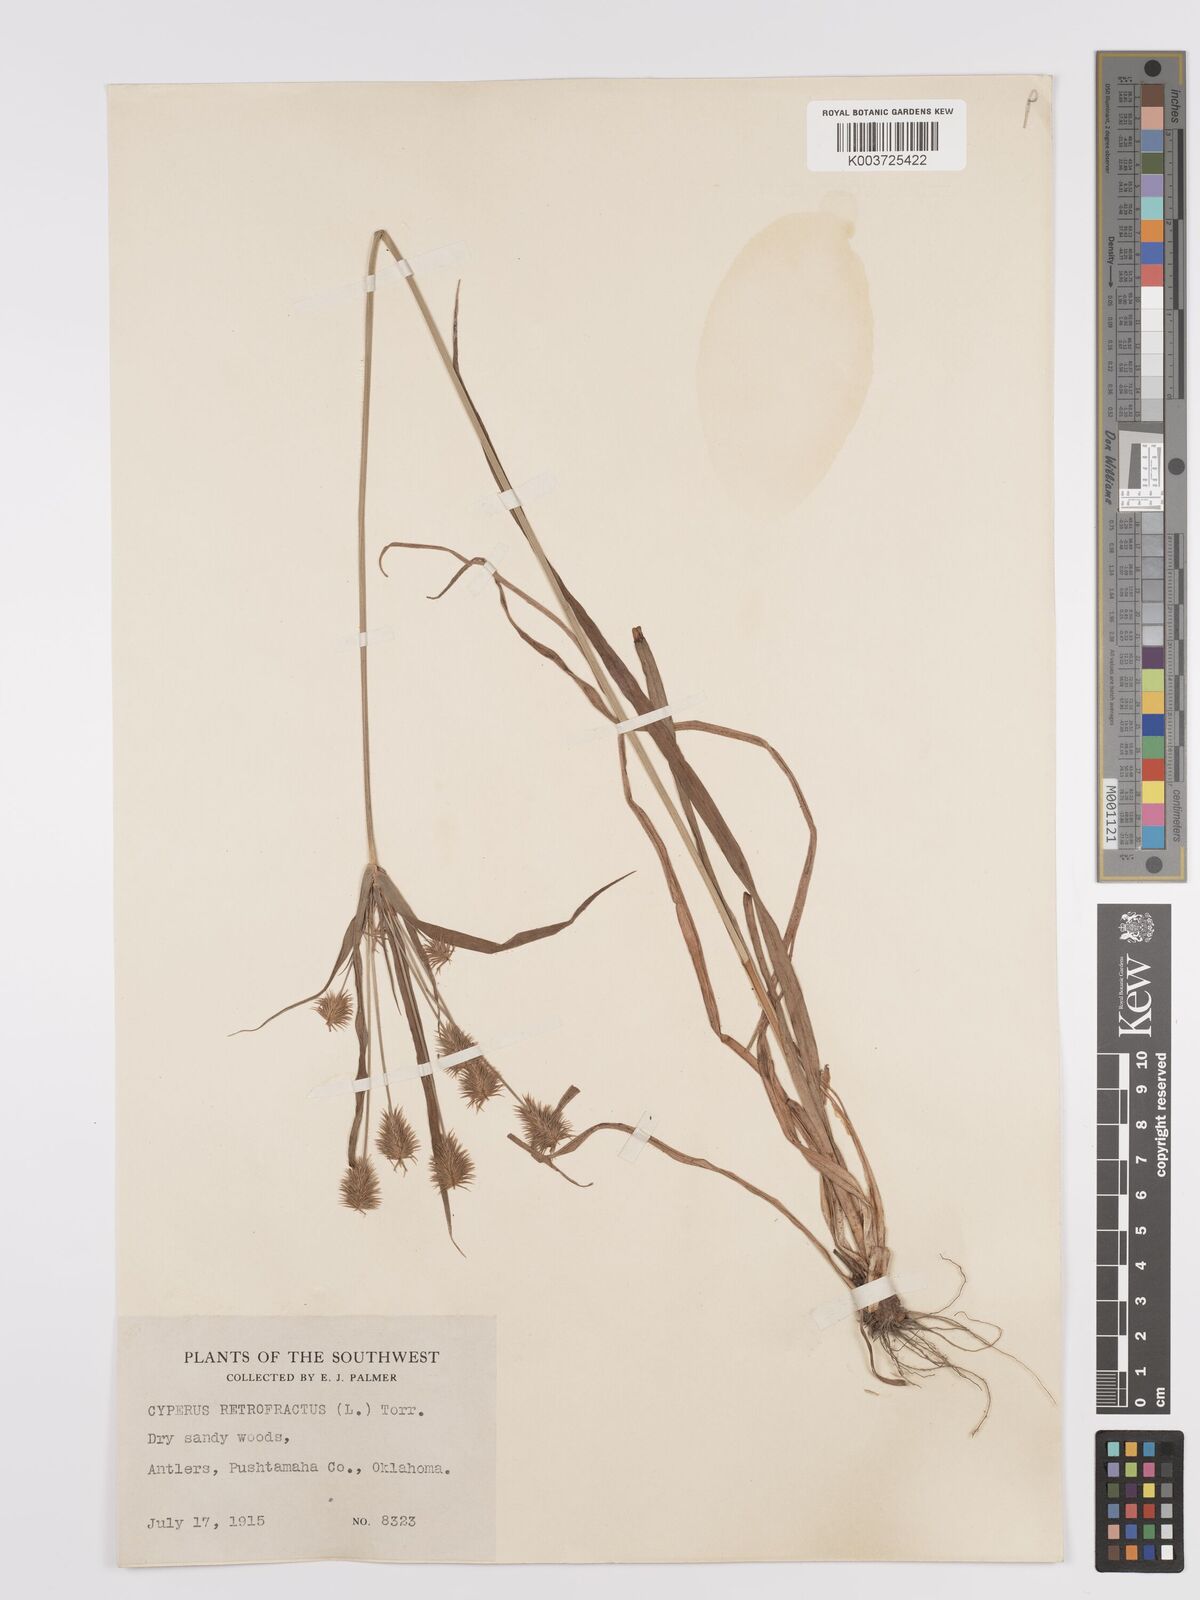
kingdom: Plantae
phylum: Tracheophyta
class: Liliopsida
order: Poales
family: Cyperaceae
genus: Cyperus
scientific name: Cyperus retrofractus
